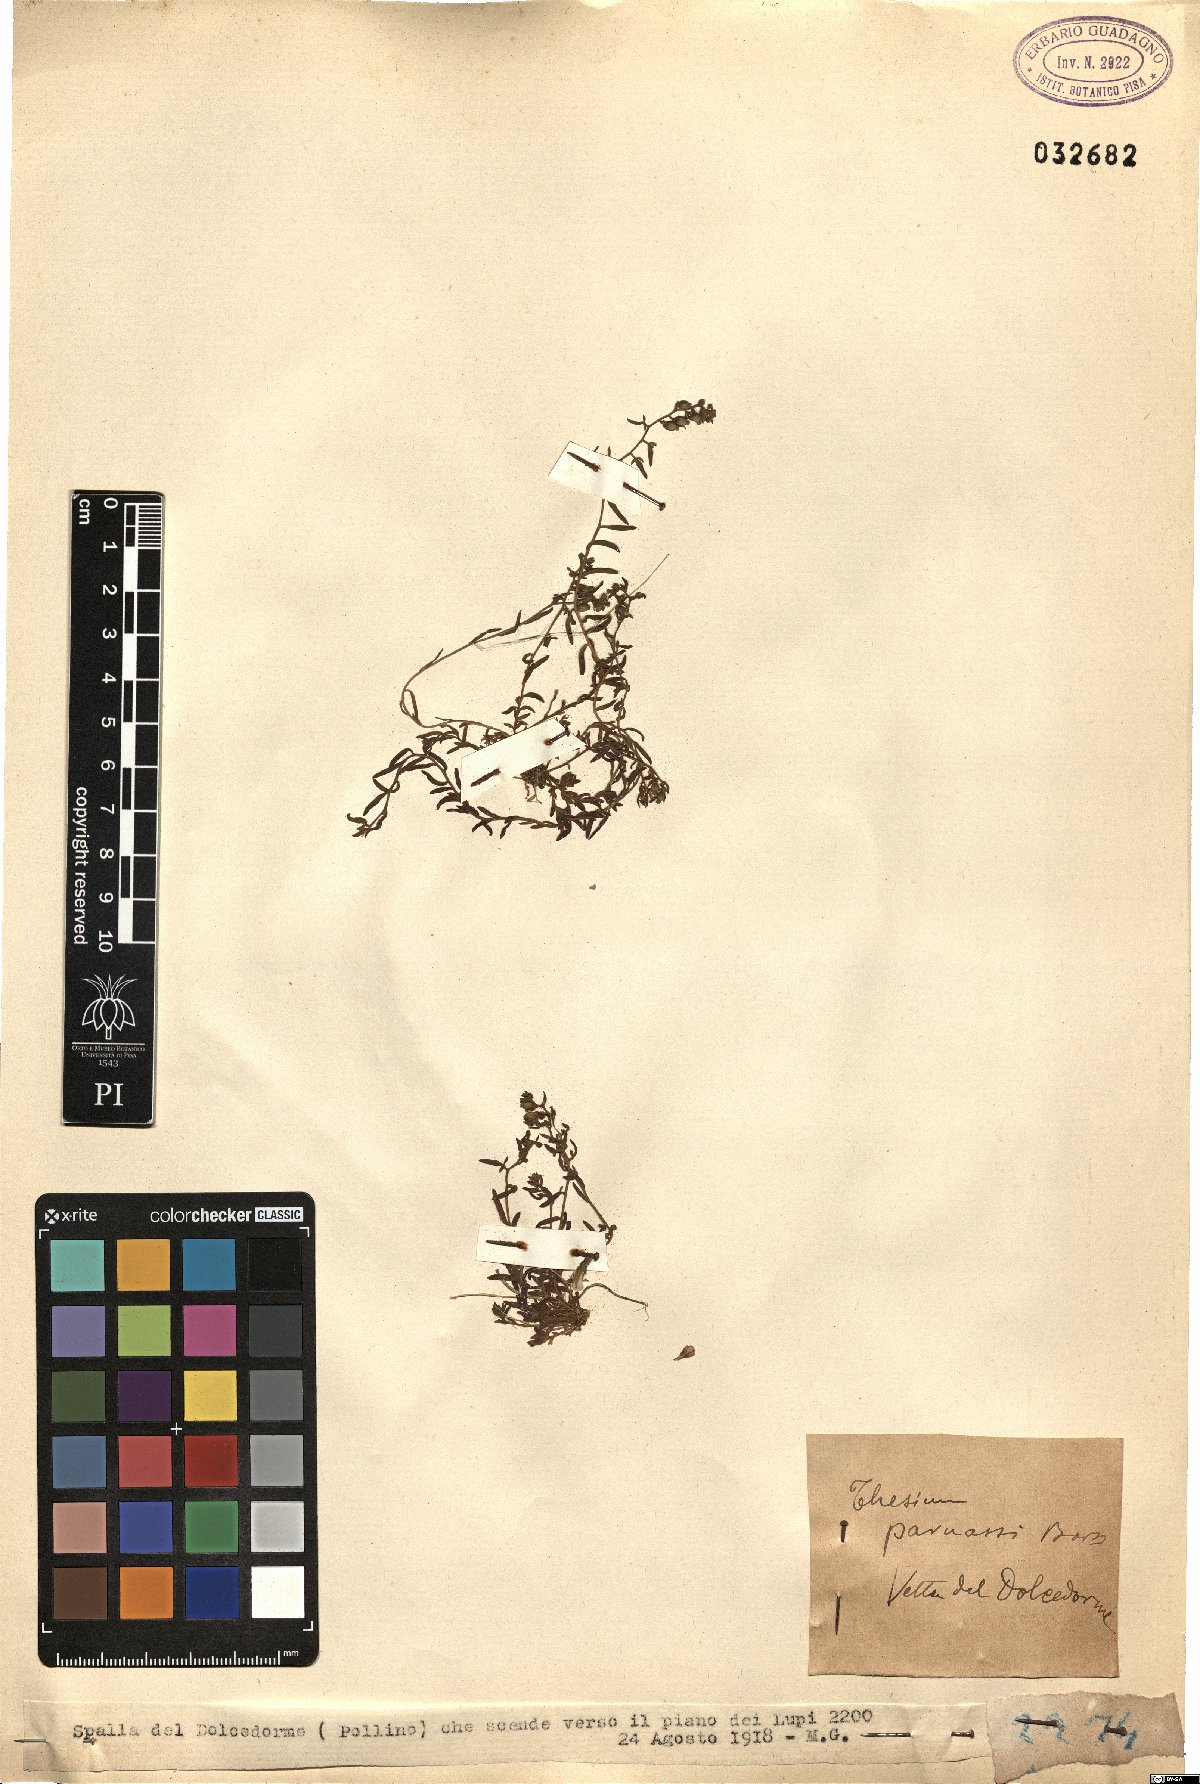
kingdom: Plantae
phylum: Tracheophyta
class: Magnoliopsida
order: Santalales
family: Thesiaceae
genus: Thesium
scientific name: Thesium parnassi
